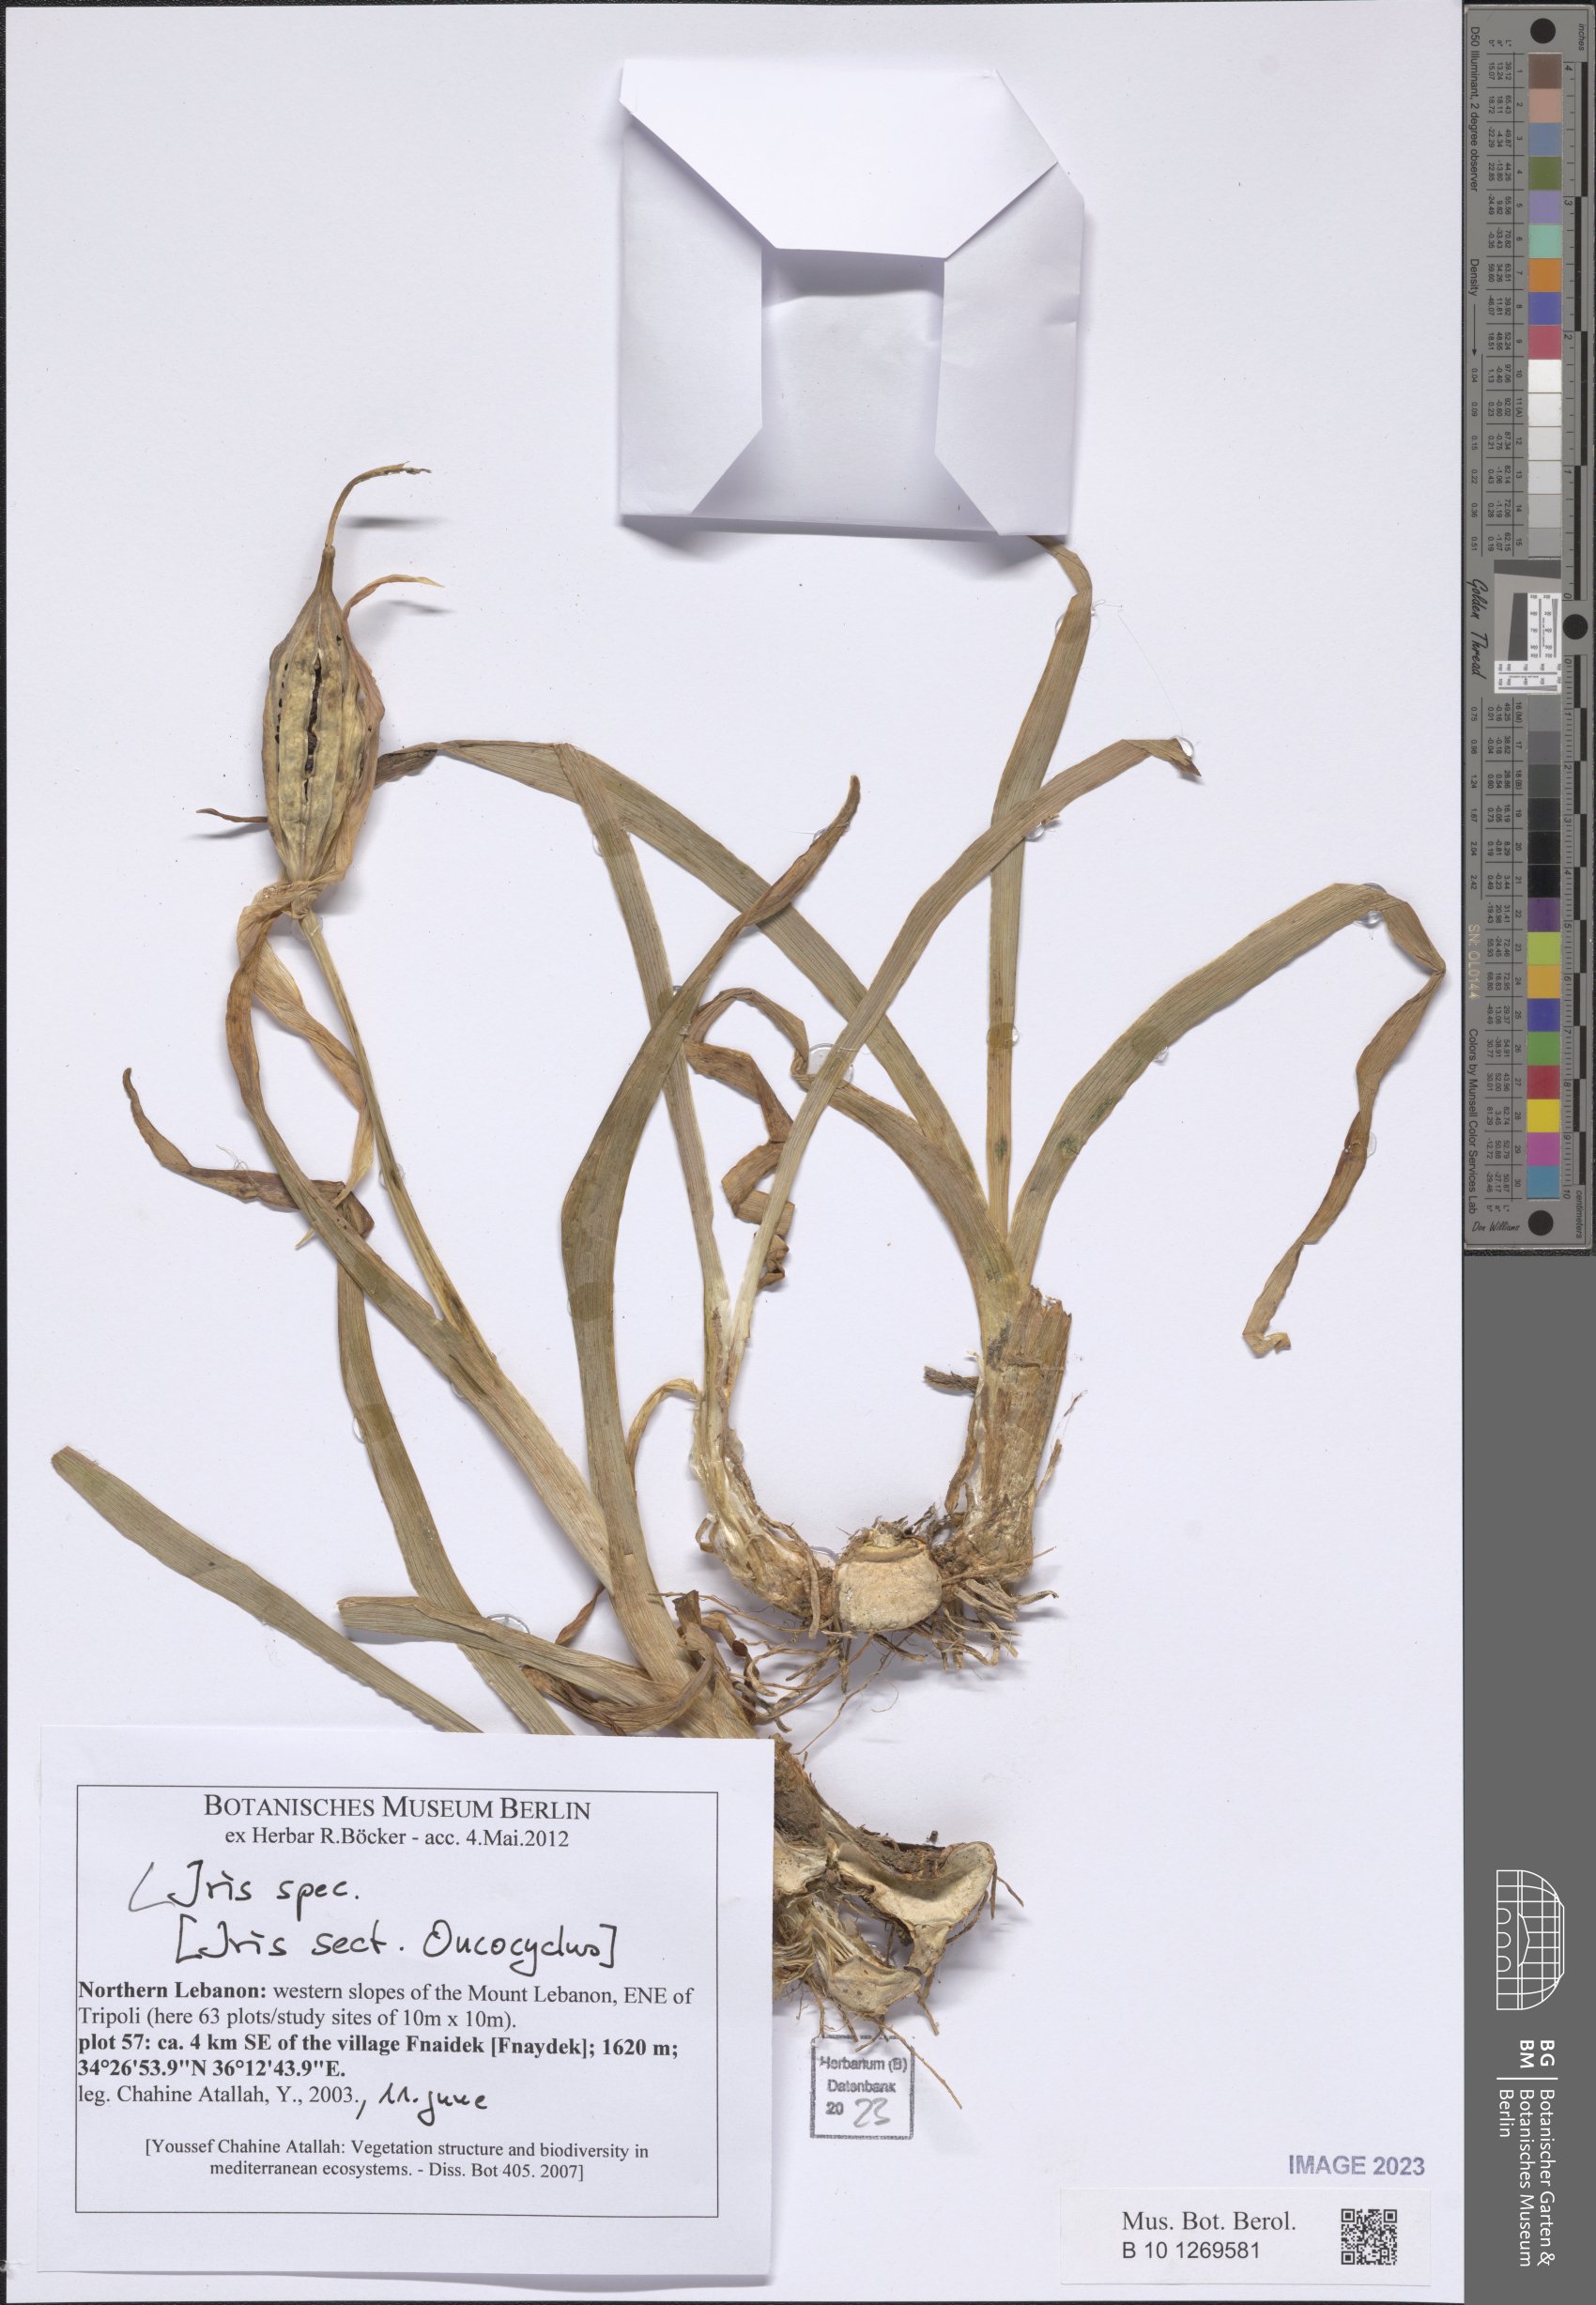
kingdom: Plantae
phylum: Tracheophyta
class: Liliopsida
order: Asparagales
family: Iridaceae
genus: Iris
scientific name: Iris
